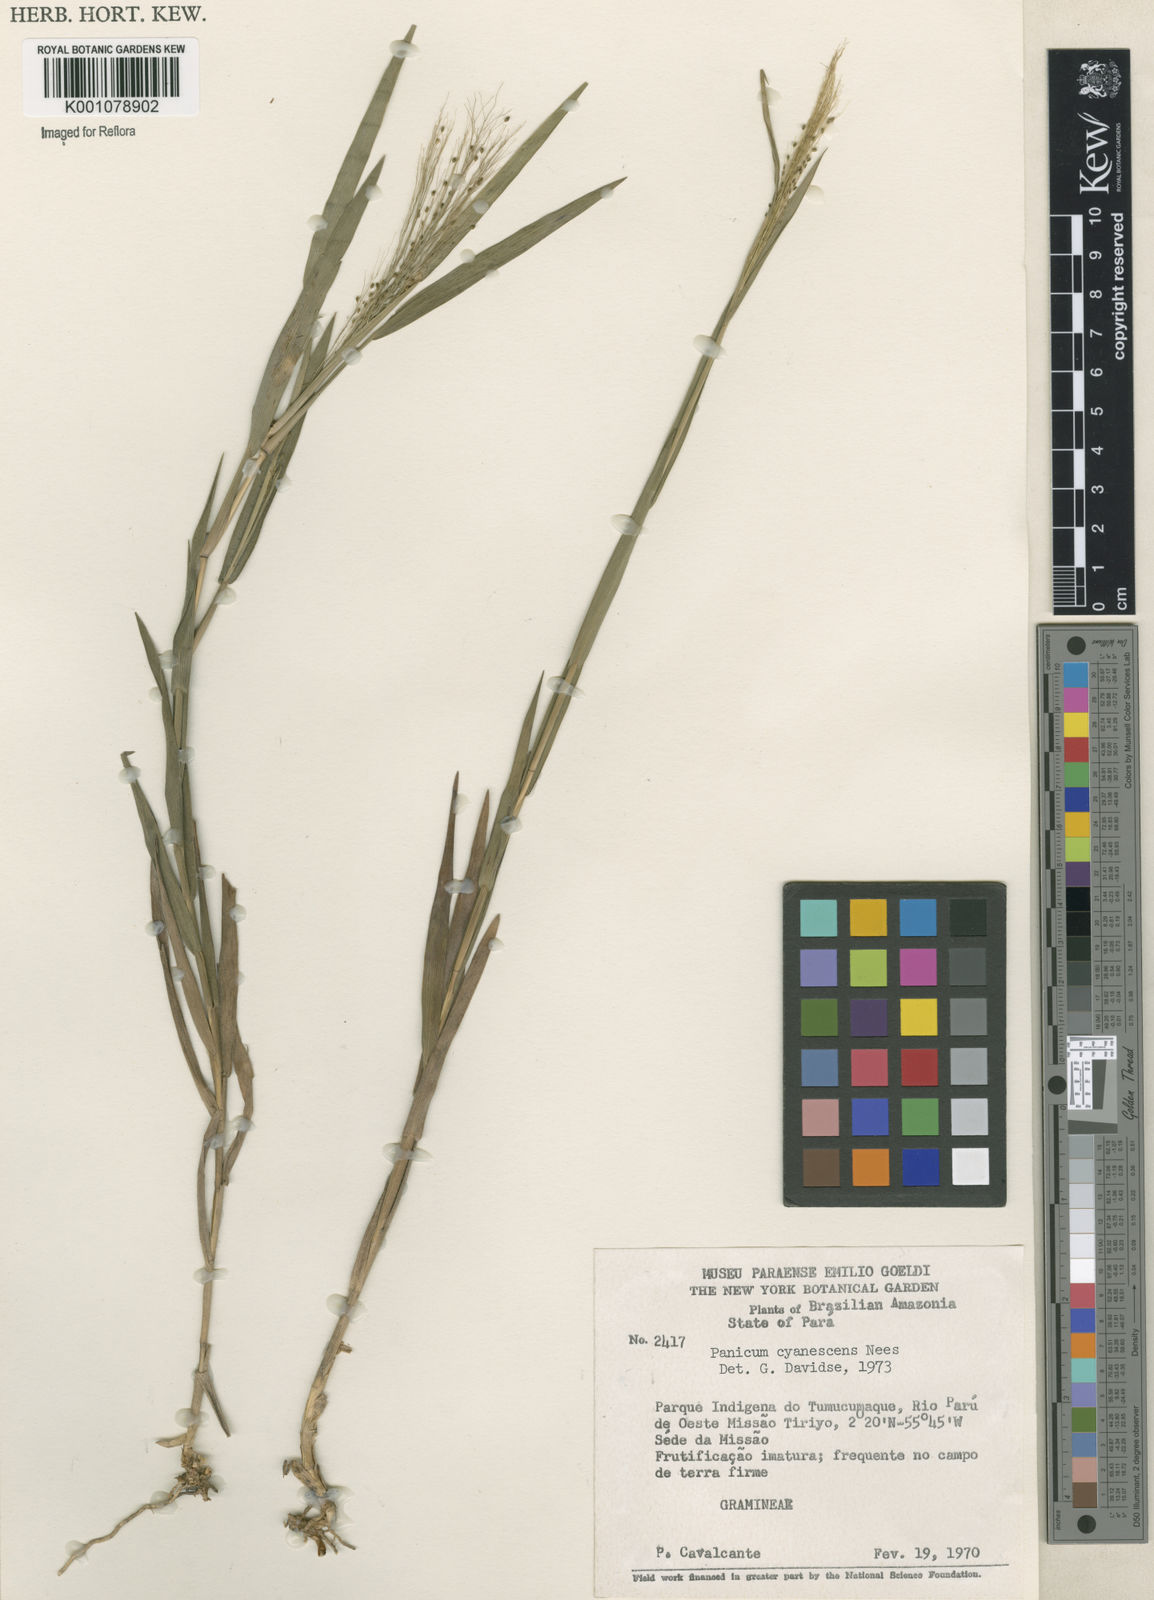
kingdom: Plantae
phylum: Tracheophyta
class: Liliopsida
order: Poales
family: Poaceae
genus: Trichanthecium
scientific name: Trichanthecium cyanescens
